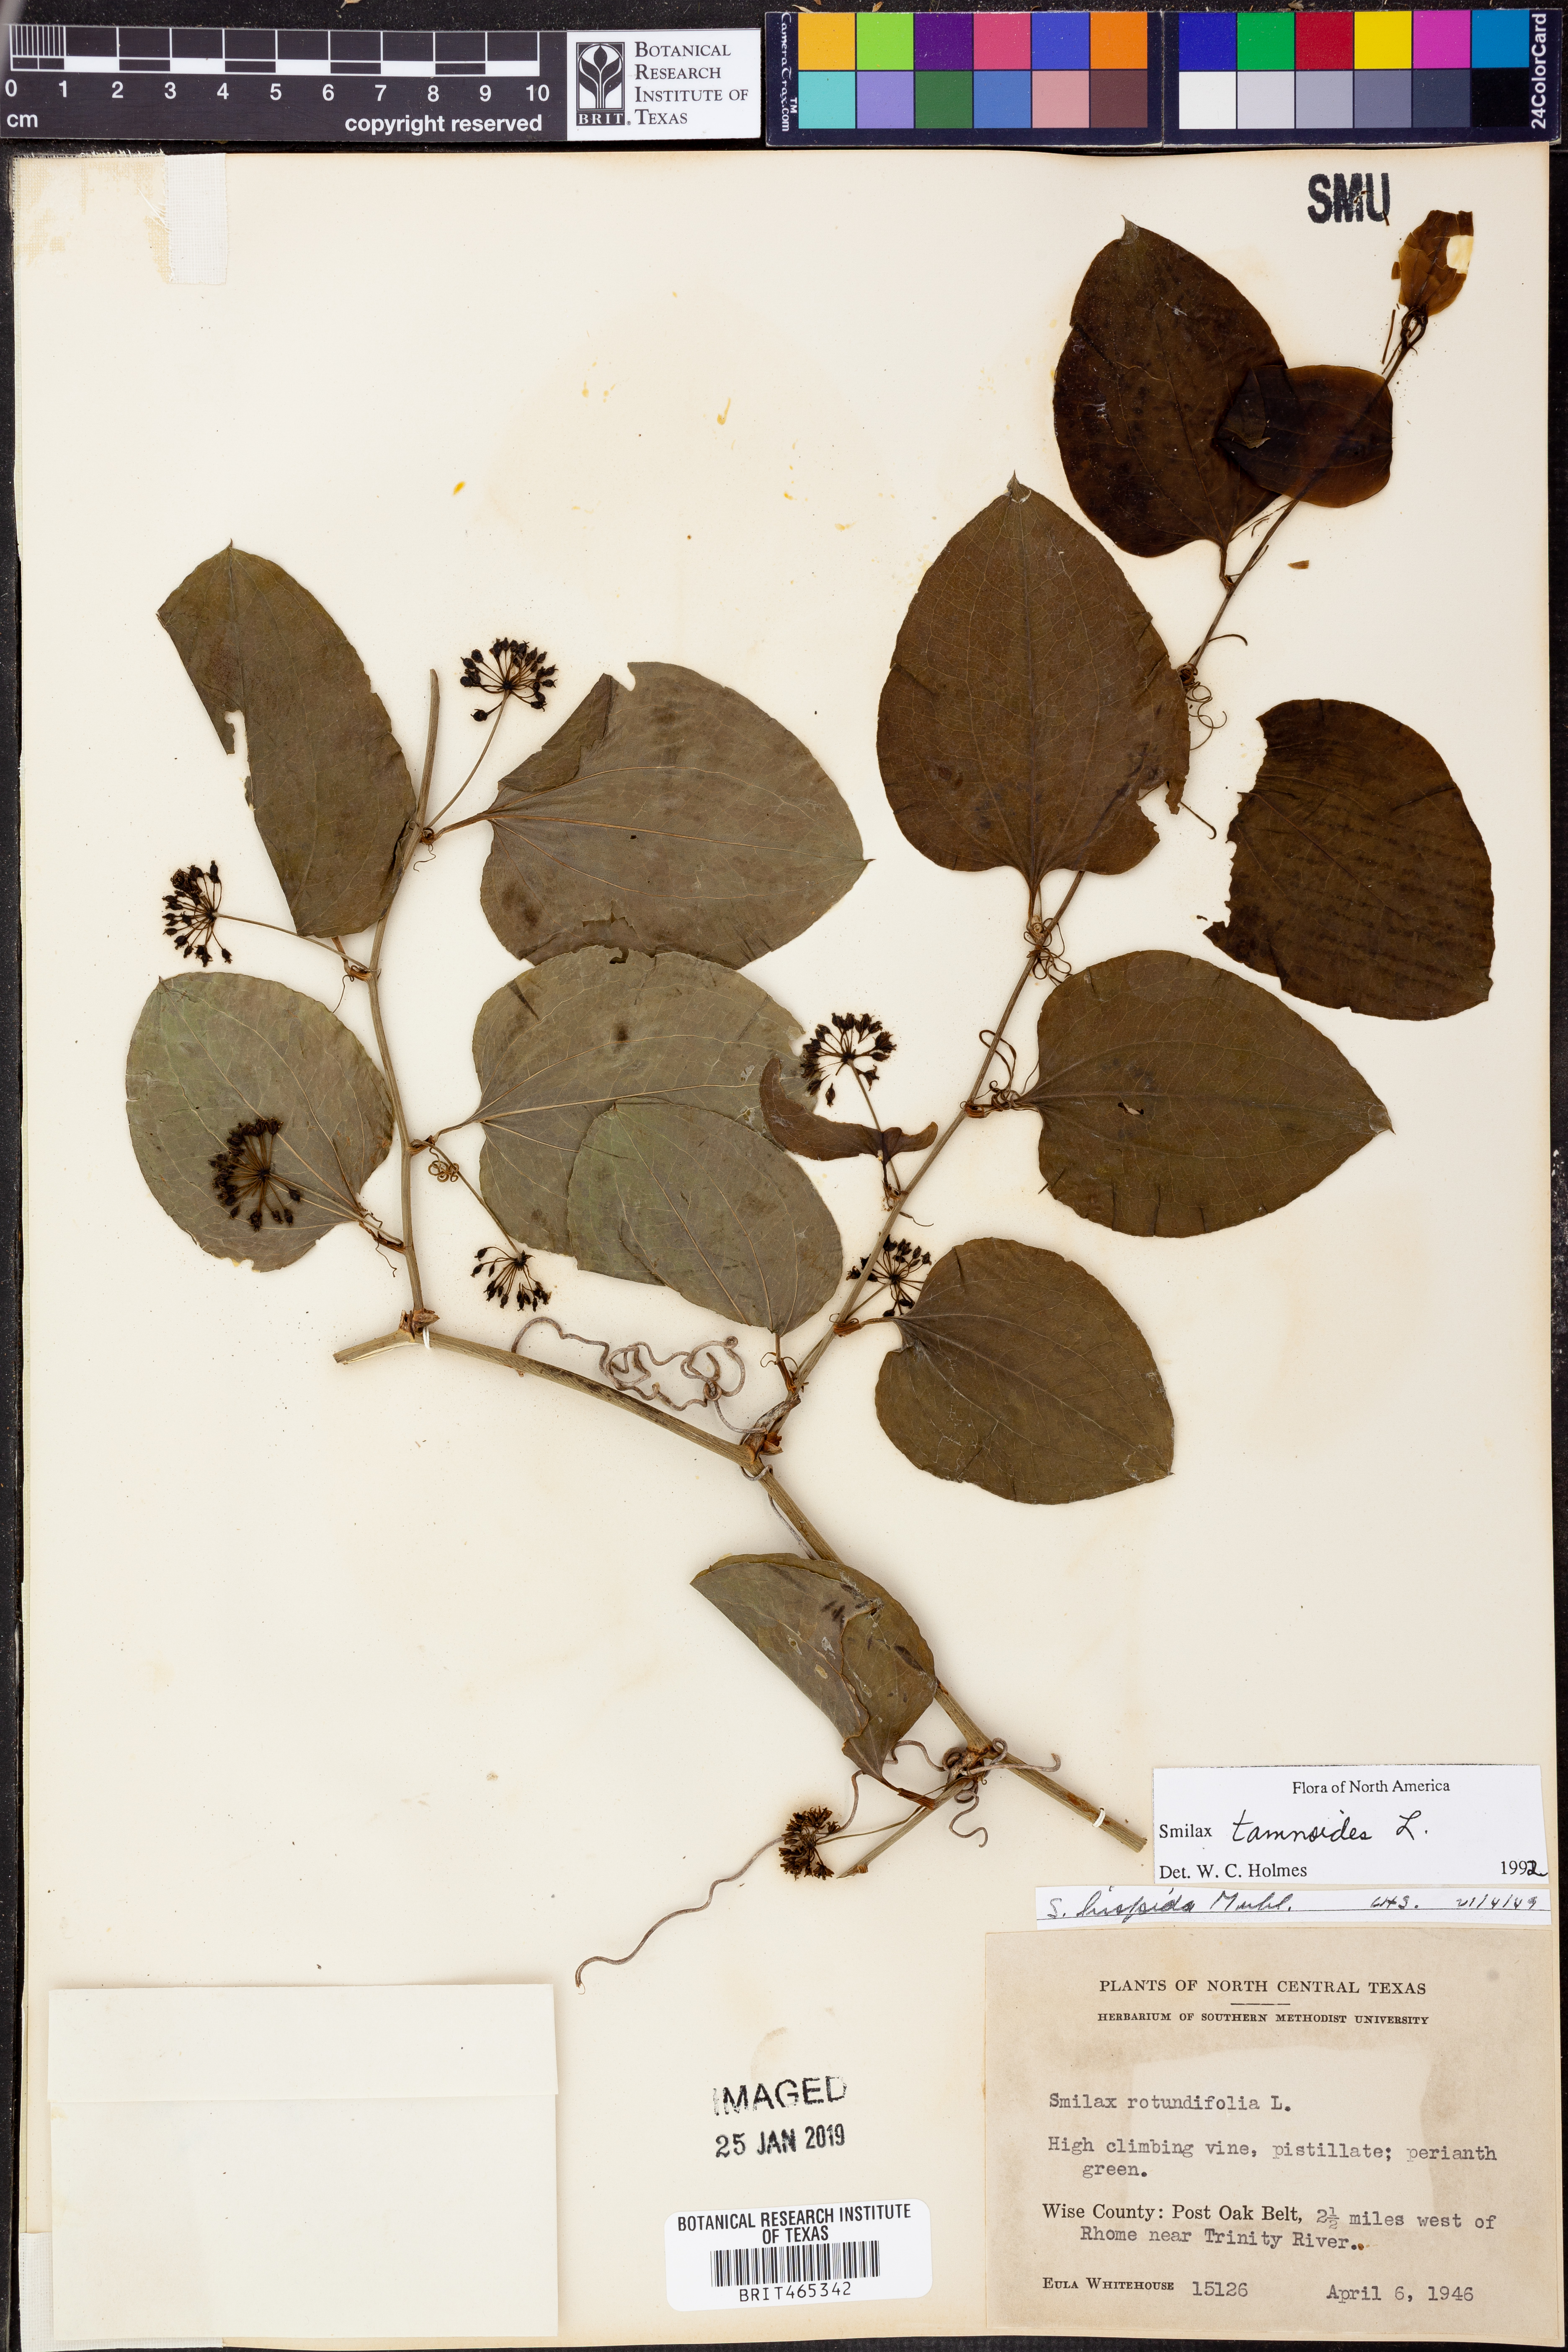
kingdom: Plantae
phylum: Tracheophyta
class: Liliopsida
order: Liliales
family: Smilacaceae
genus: Smilax
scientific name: Smilax tamnoides
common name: Hellfetter
